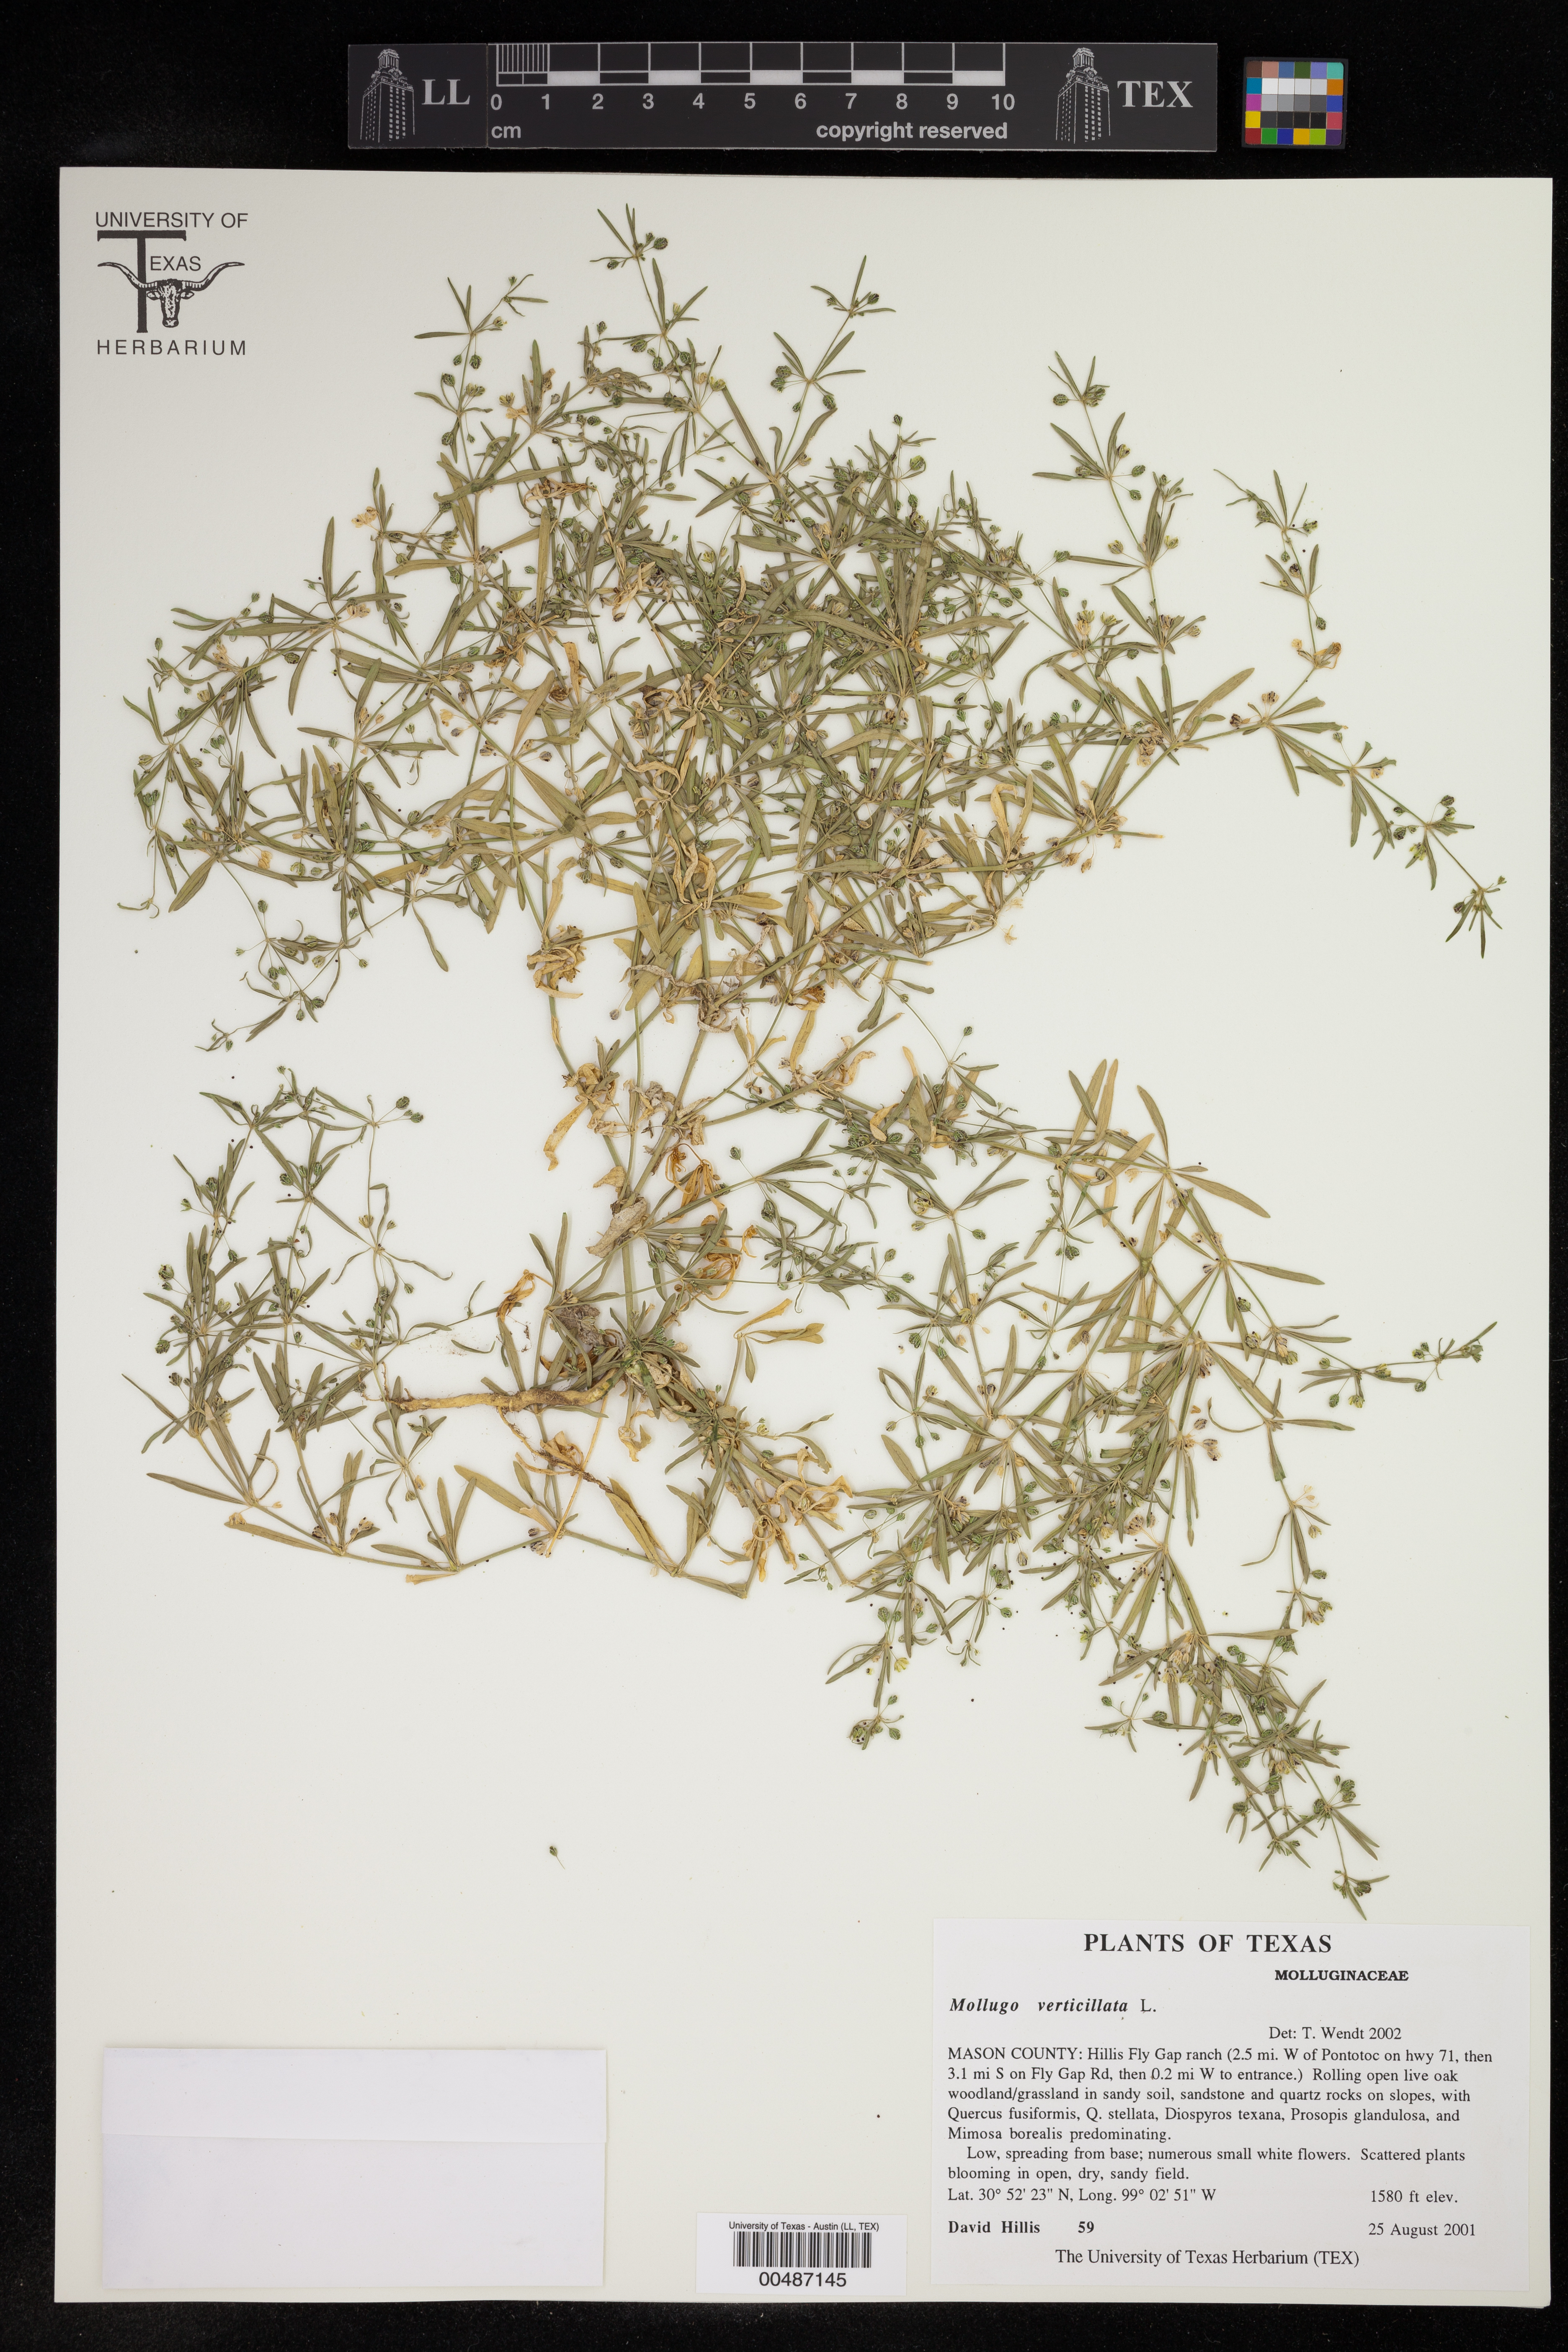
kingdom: Plantae
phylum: Tracheophyta
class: Magnoliopsida
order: Caryophyllales
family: Molluginaceae
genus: Mollugo
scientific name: Mollugo verticillata
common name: Green carpetweed
